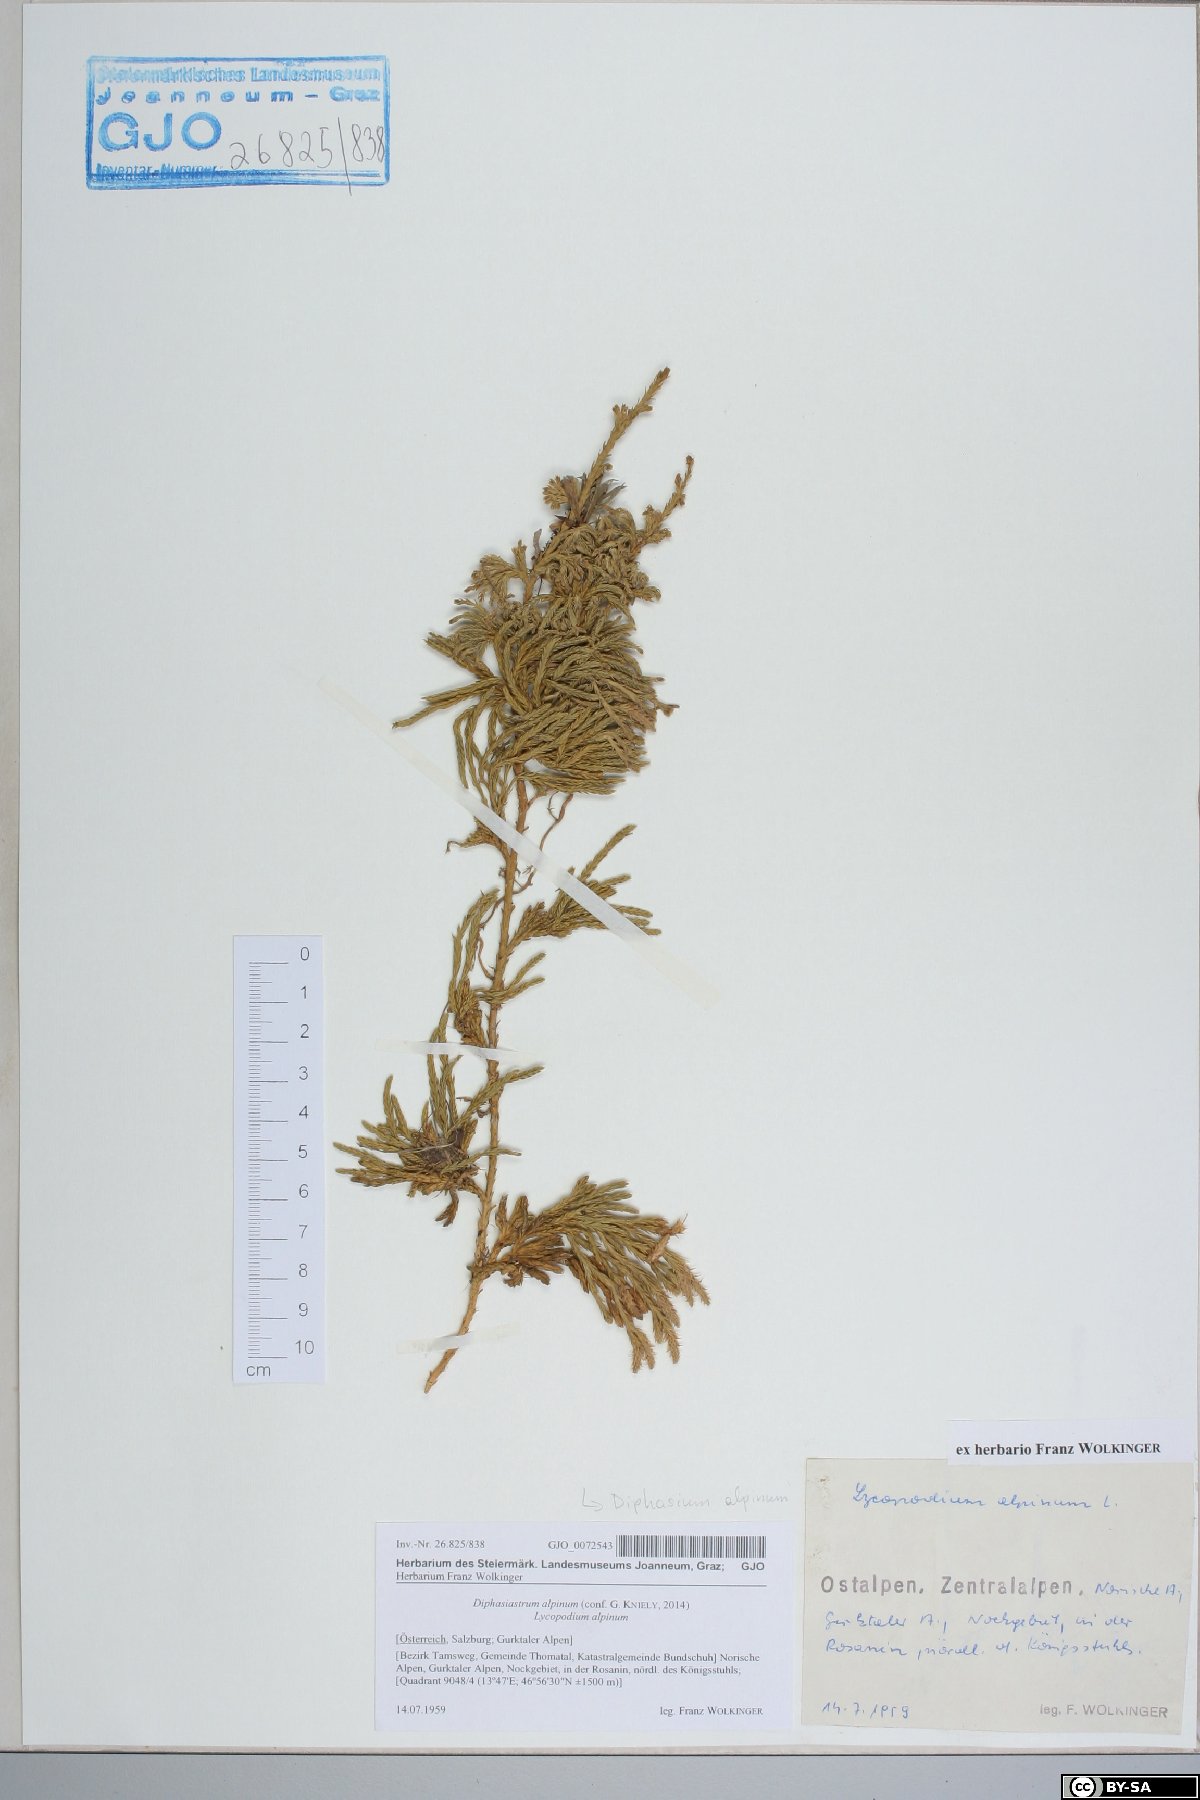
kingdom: Plantae
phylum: Tracheophyta
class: Lycopodiopsida
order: Lycopodiales
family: Lycopodiaceae
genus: Diphasiastrum
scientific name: Diphasiastrum alpinum
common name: Alpine clubmoss
